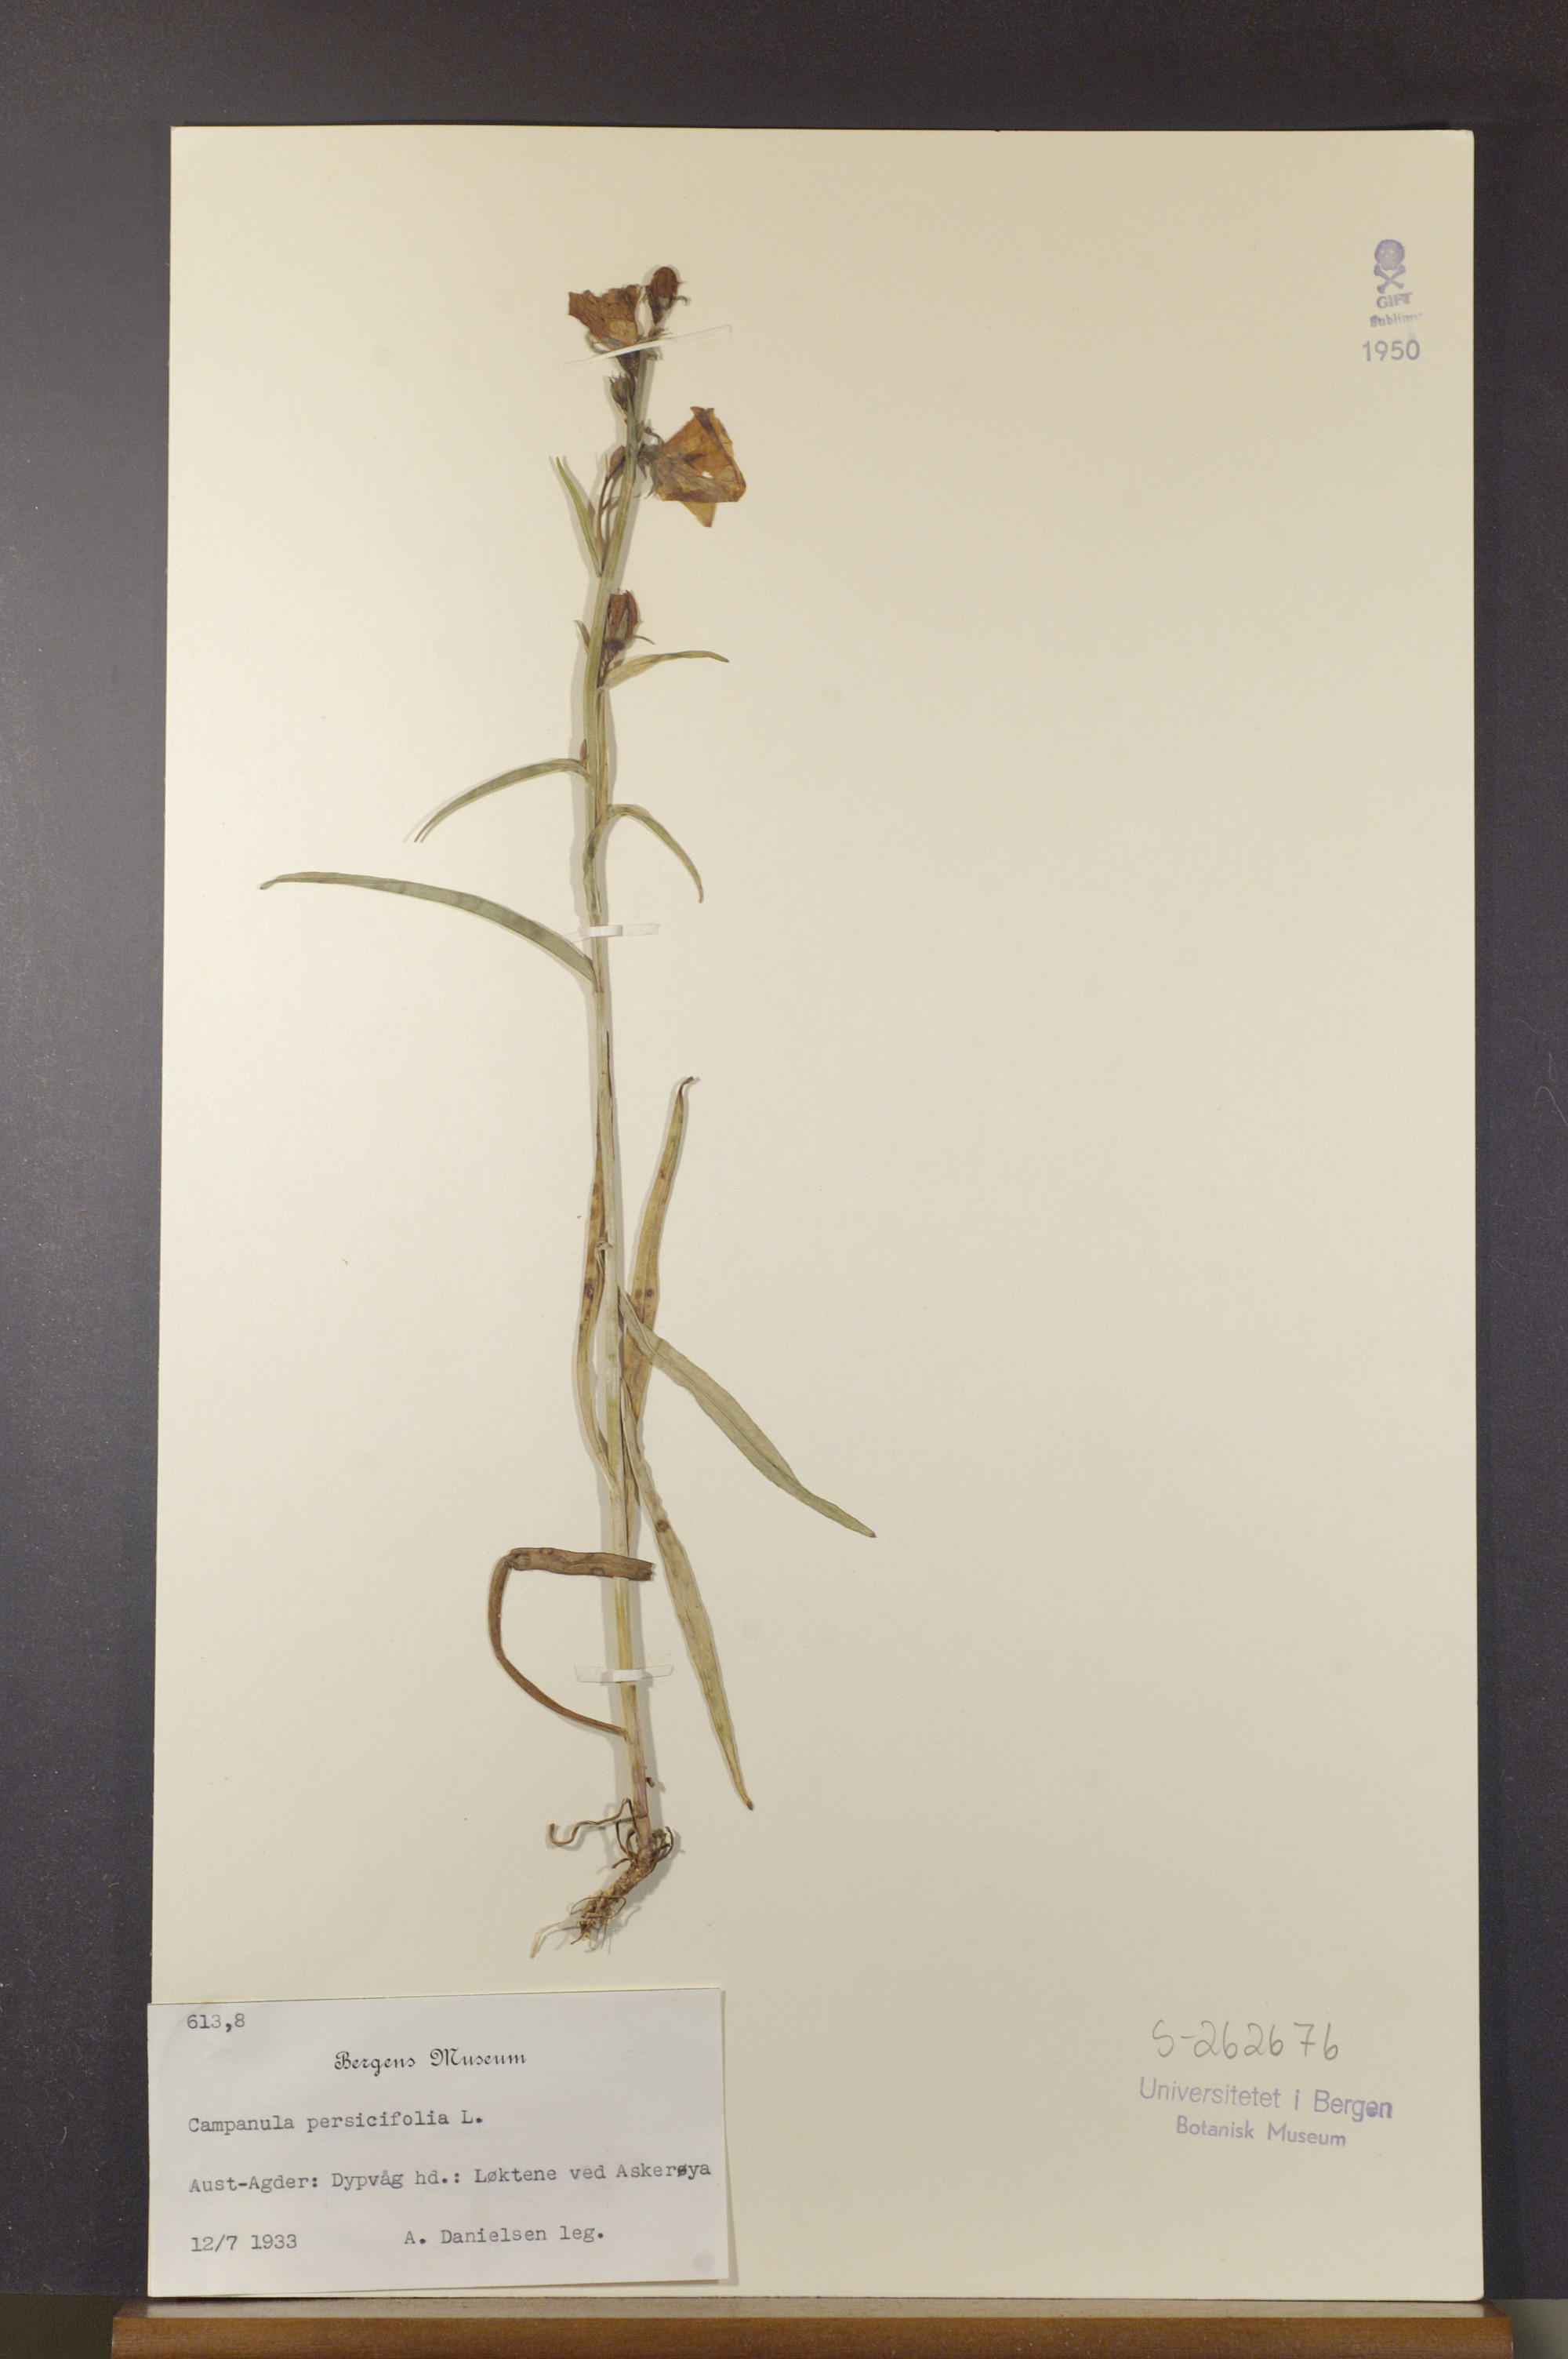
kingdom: Plantae
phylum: Tracheophyta
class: Magnoliopsida
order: Asterales
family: Campanulaceae
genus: Campanula
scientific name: Campanula persicifolia
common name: Peach-leaved bellflower
